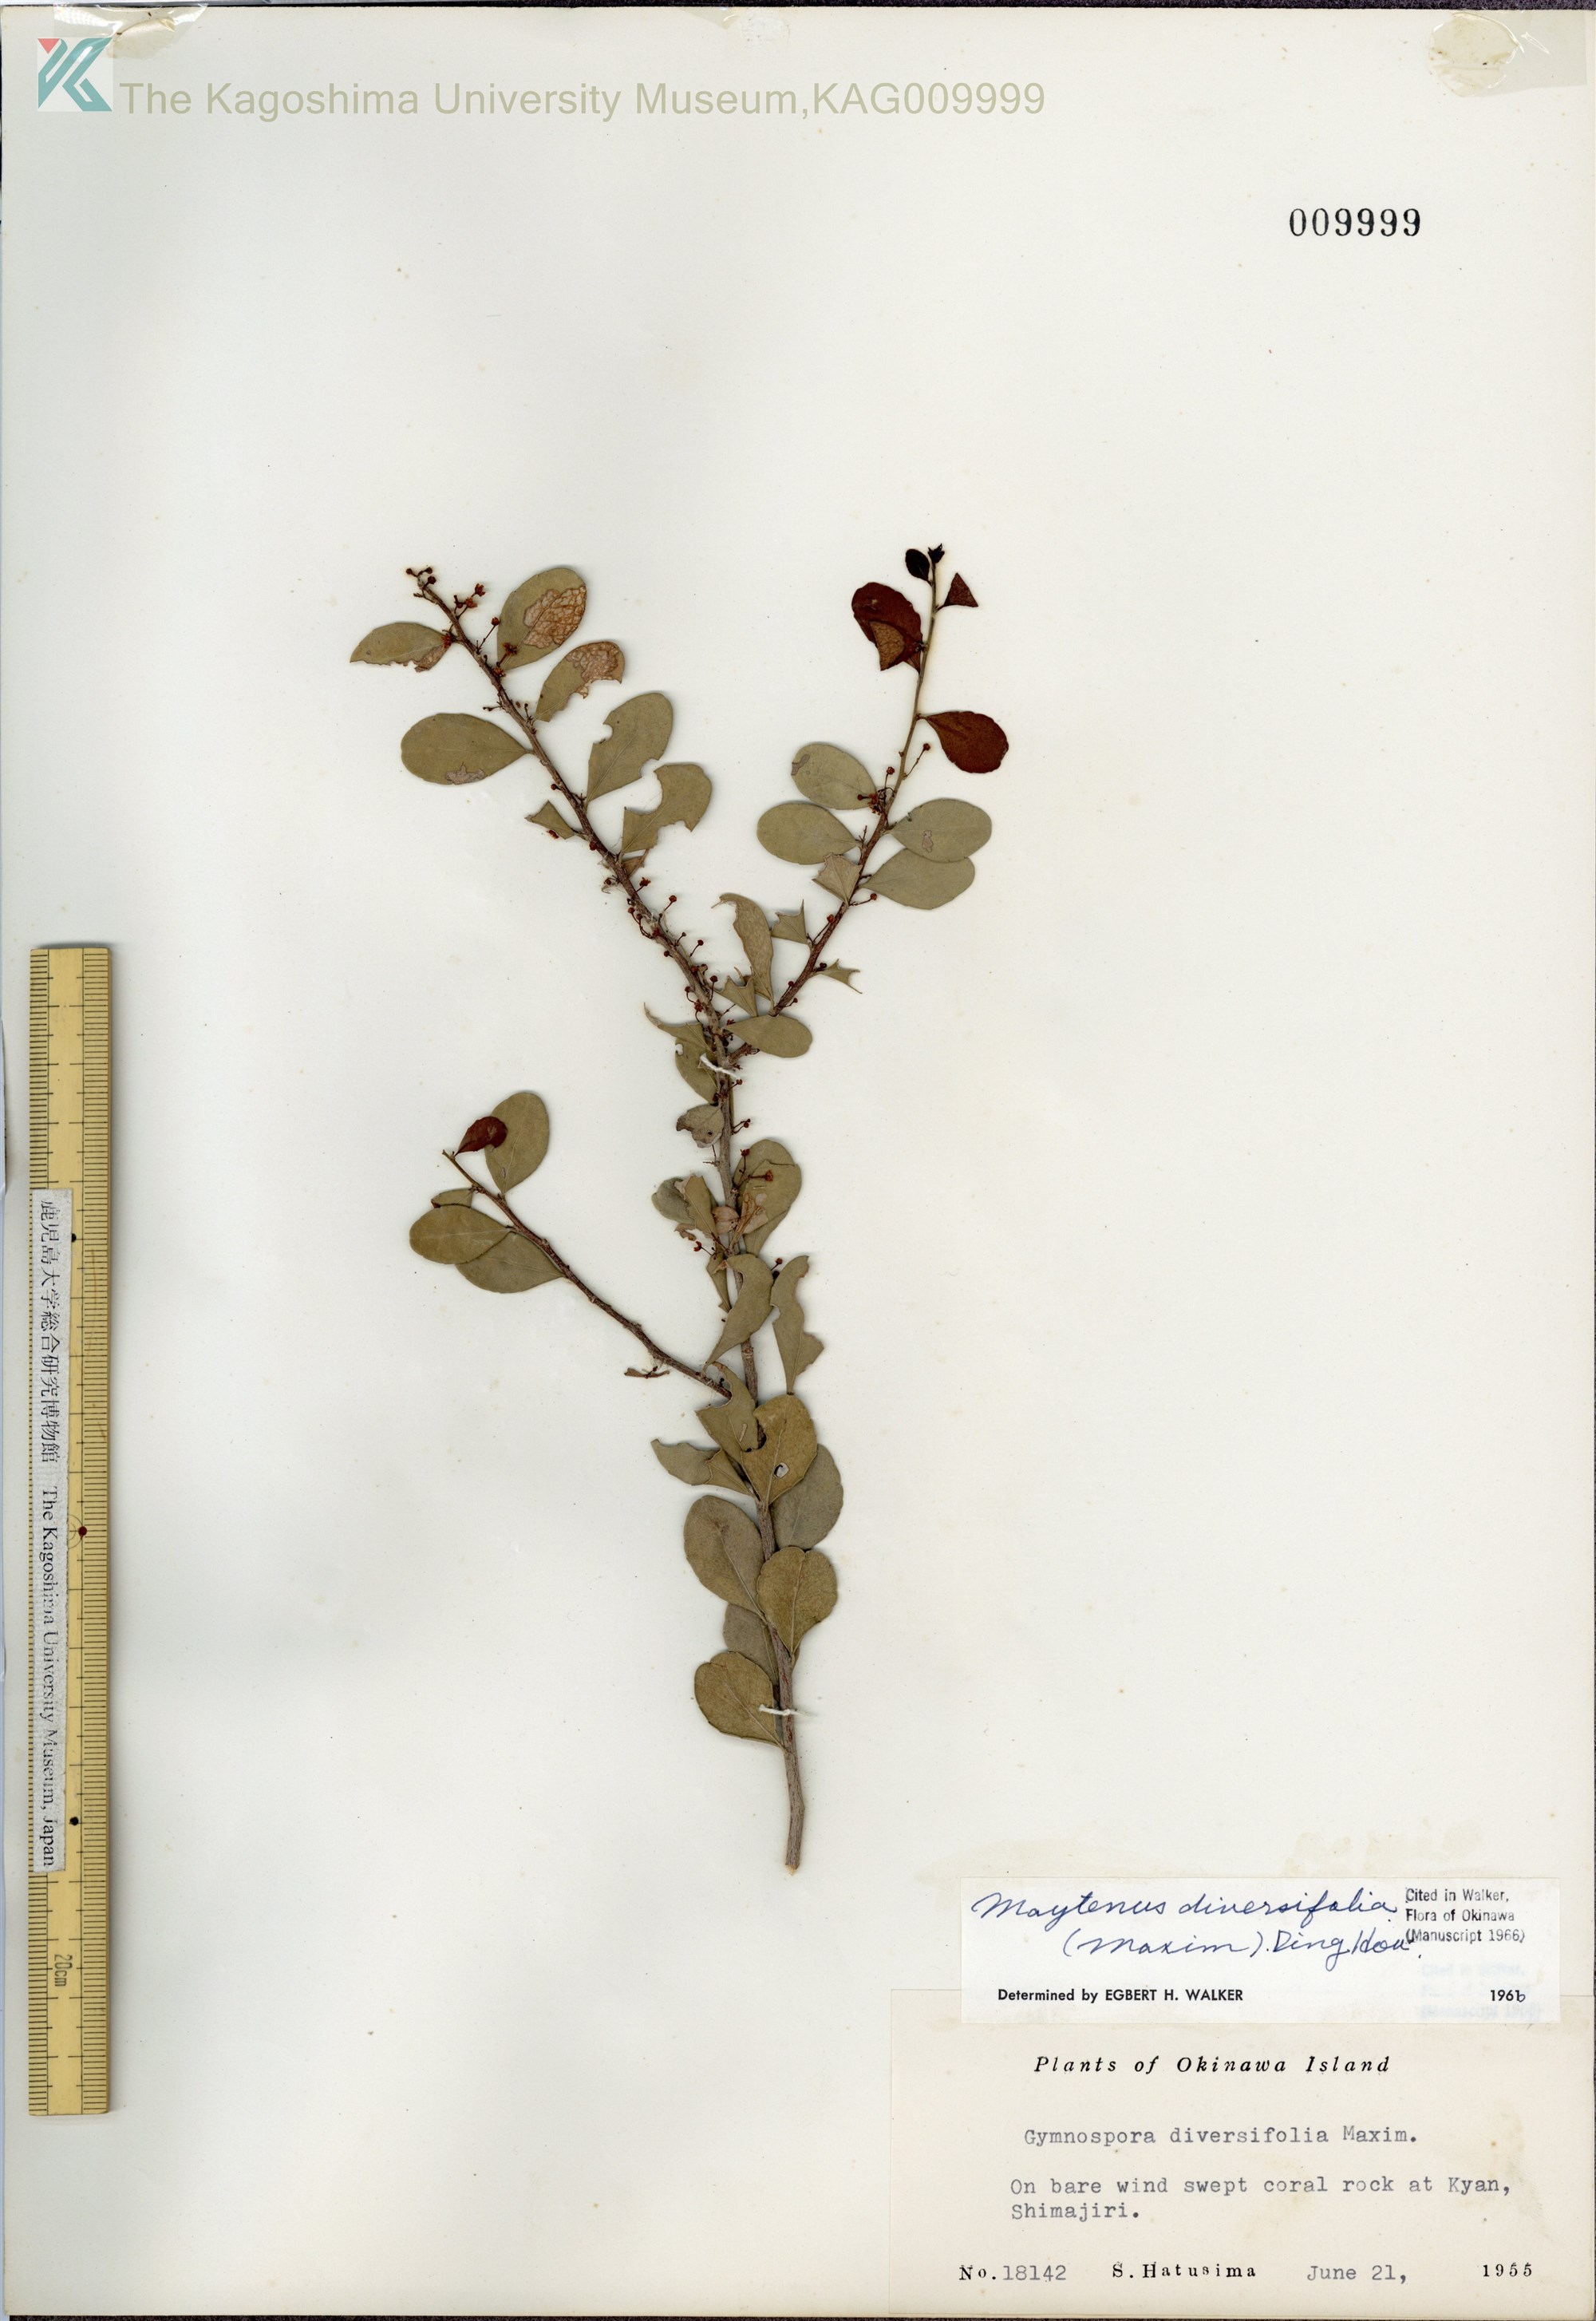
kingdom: Plantae
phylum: Tracheophyta
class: Magnoliopsida
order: Celastrales
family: Celastraceae
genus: Gymnosporia
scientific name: Gymnosporia diversifolia
